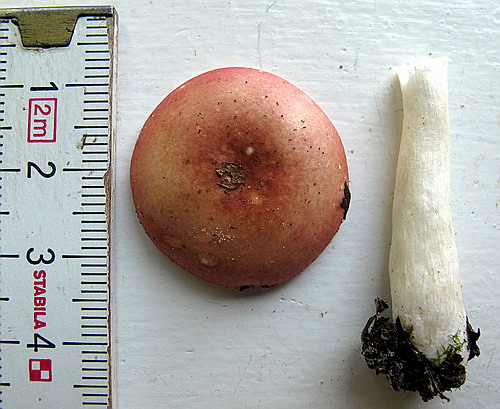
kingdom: Fungi
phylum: Basidiomycota
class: Agaricomycetes
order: Russulales
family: Russulaceae
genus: Russula
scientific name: Russula gracillima
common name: slank skørhat
